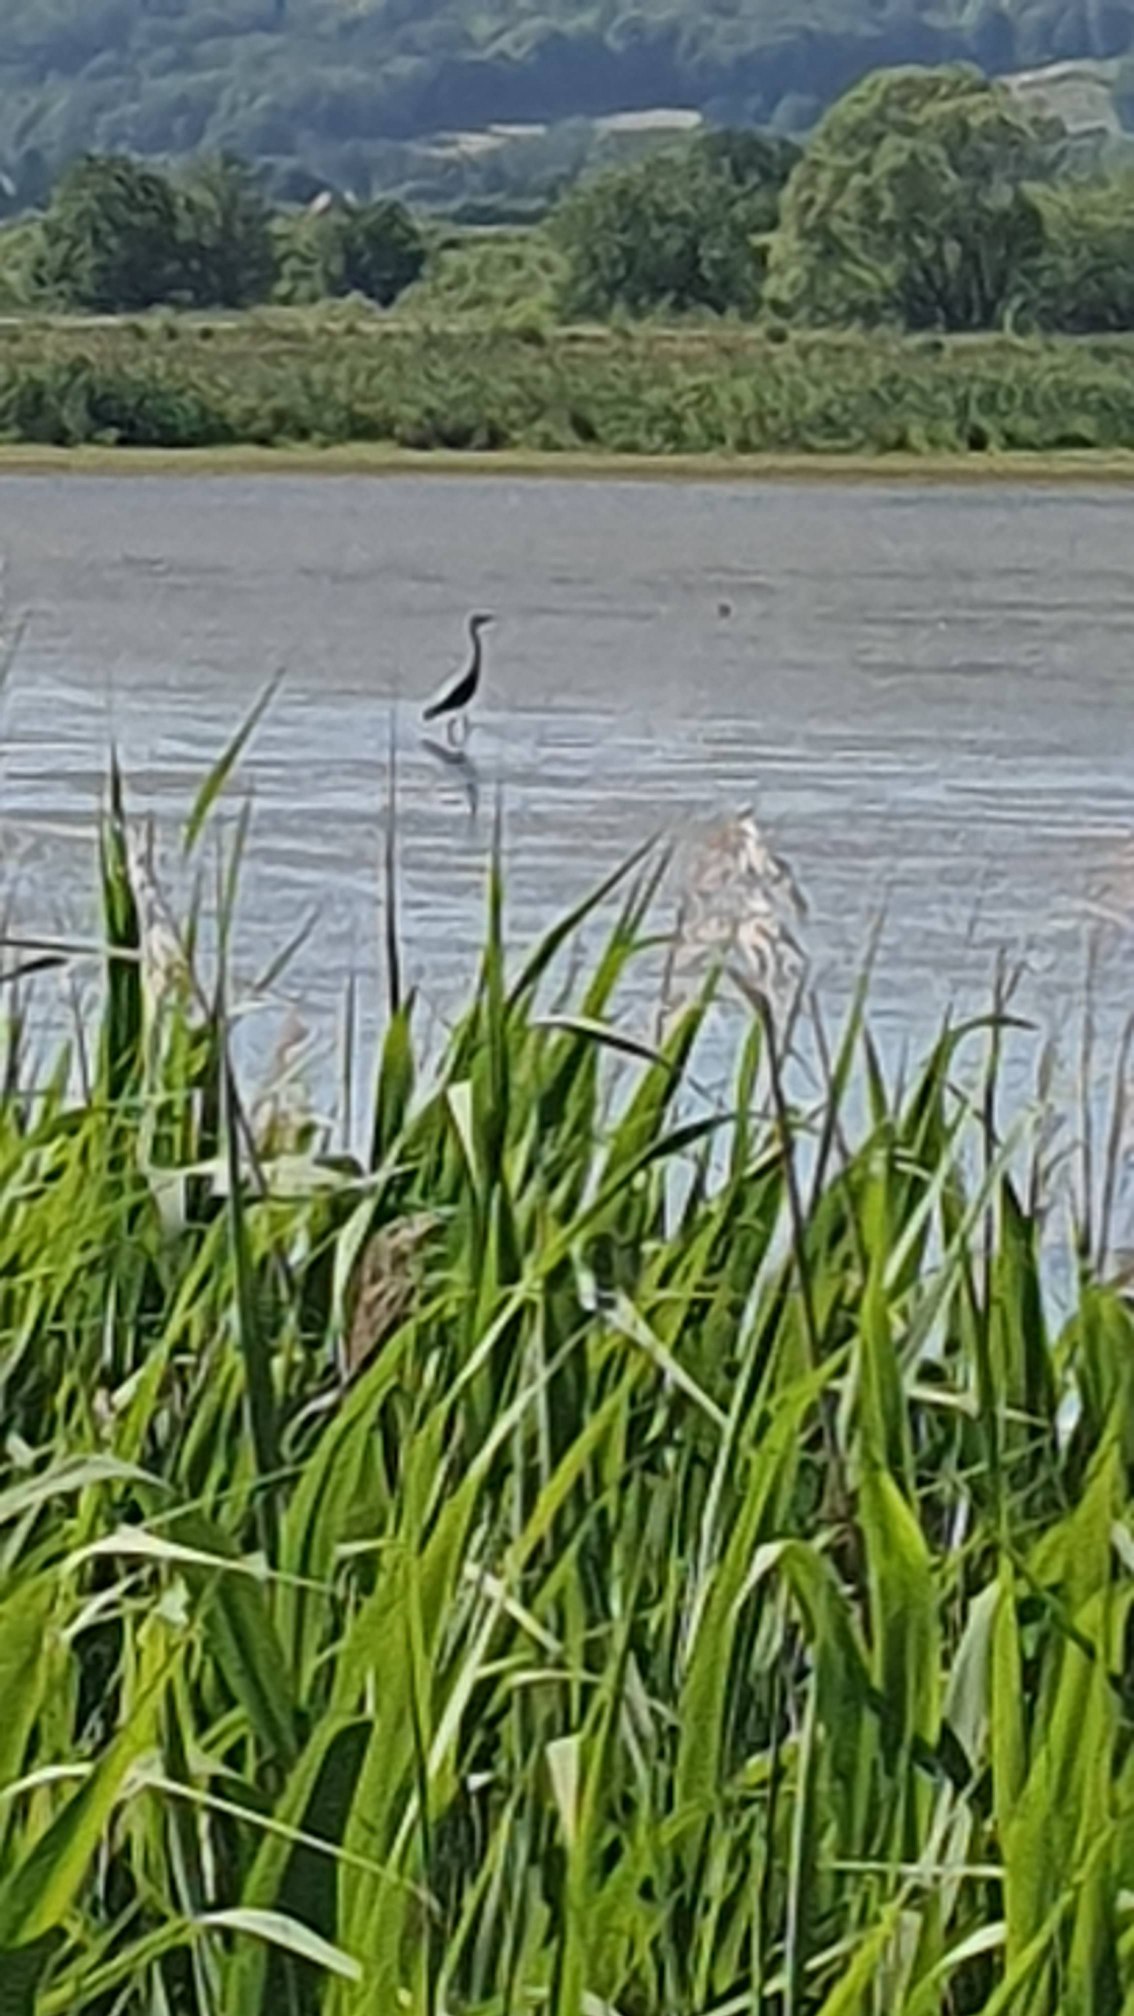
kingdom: Animalia
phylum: Chordata
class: Aves
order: Pelecaniformes
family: Ardeidae
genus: Ardea
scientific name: Ardea cinerea
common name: Fiskehejre
